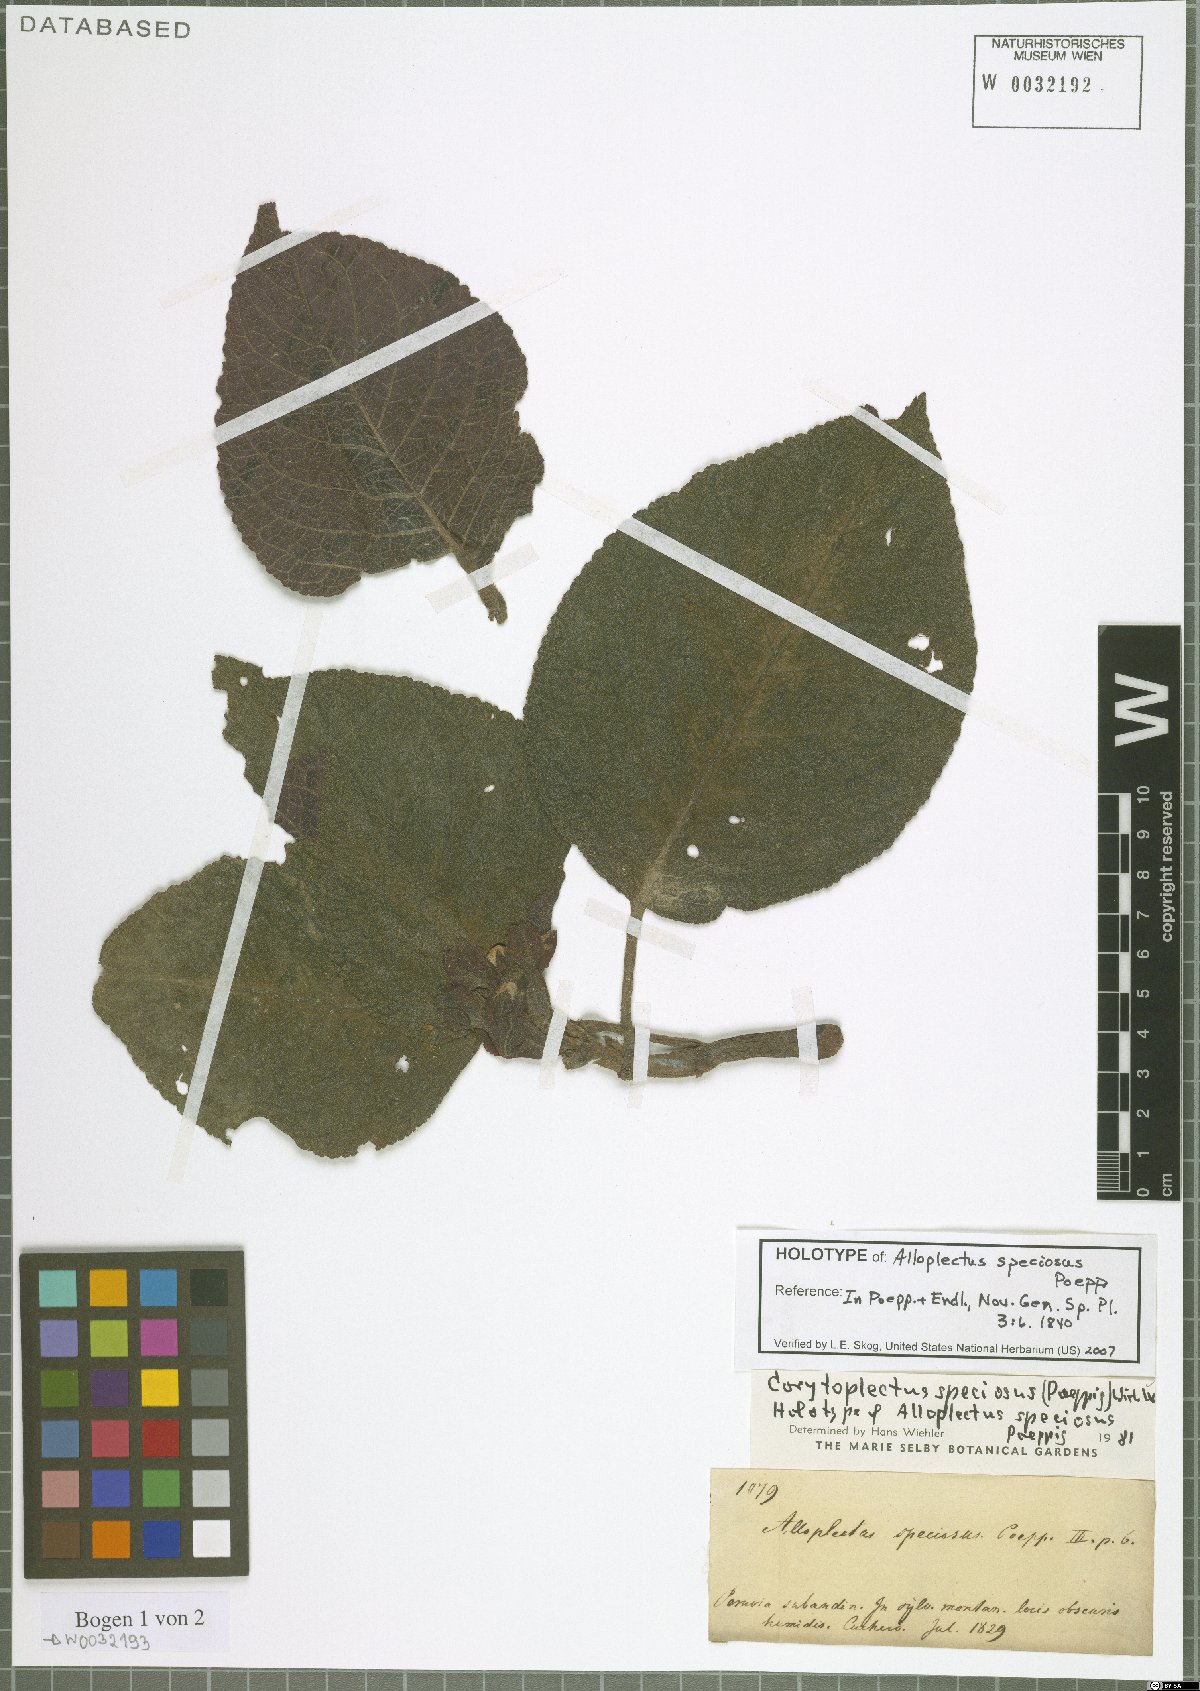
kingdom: Plantae
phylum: Tracheophyta
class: Magnoliopsida
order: Lamiales
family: Gesneriaceae
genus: Corytoplectus
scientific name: Corytoplectus speciosus
